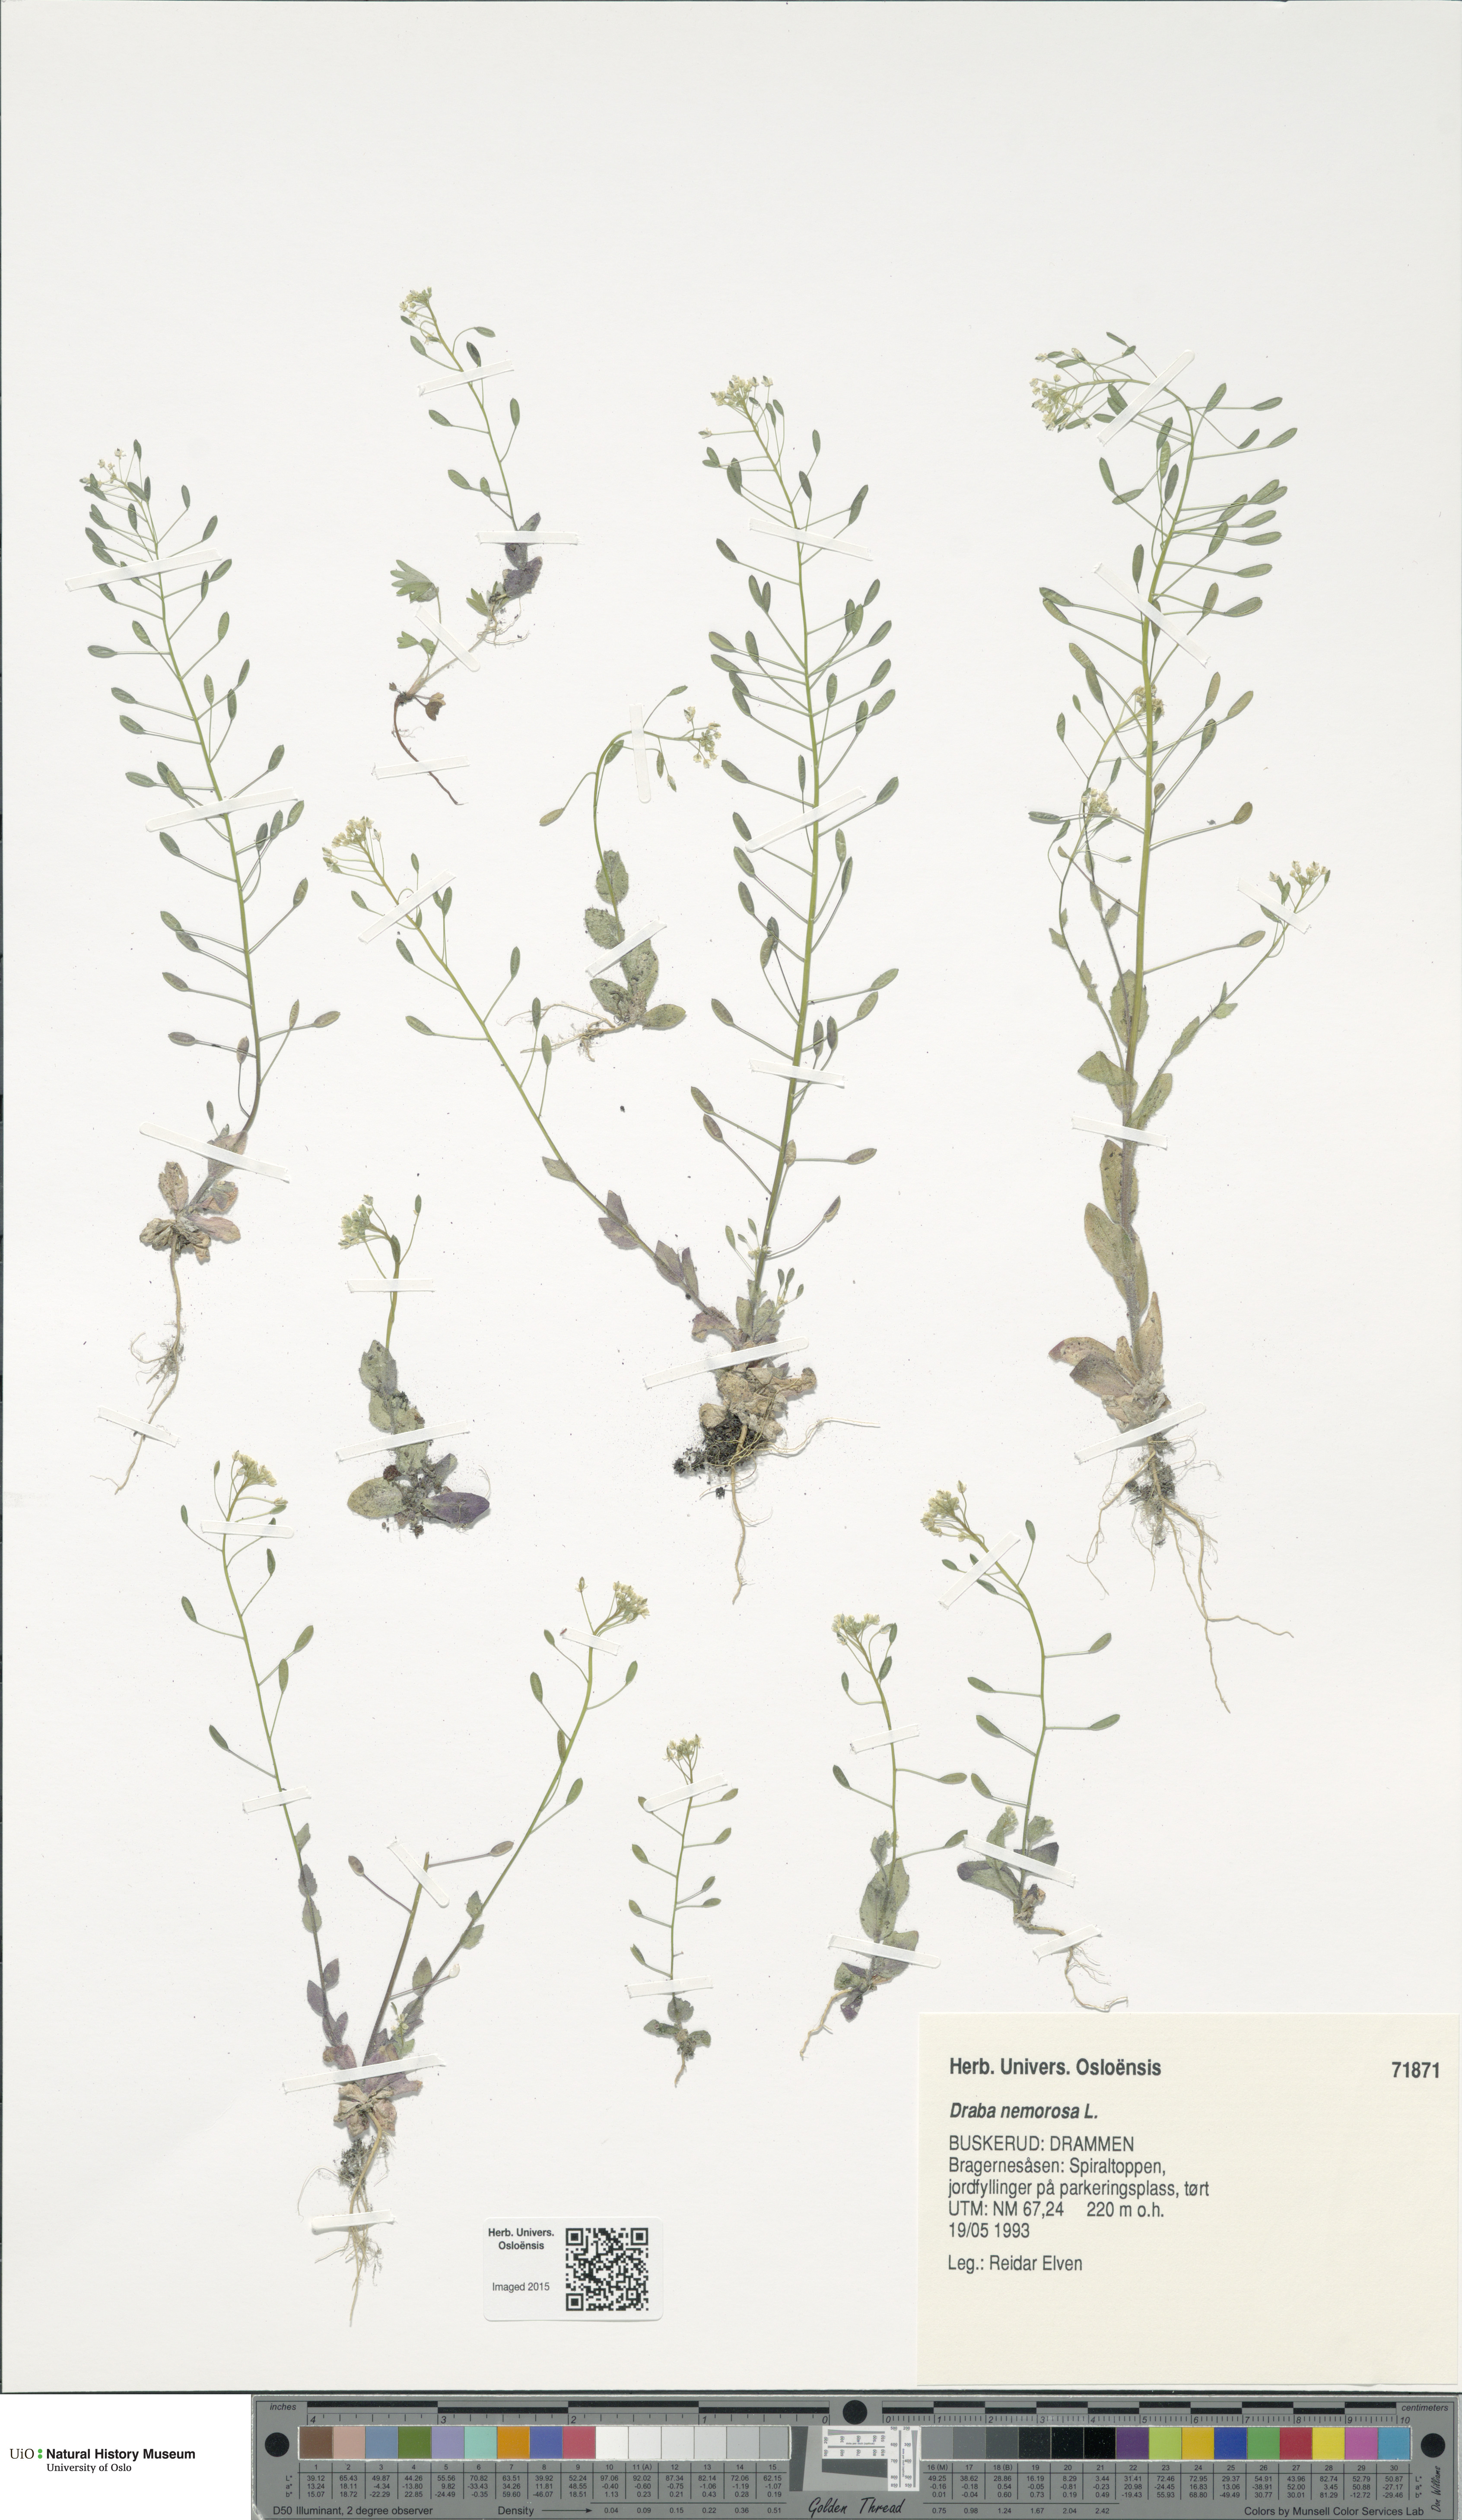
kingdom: Plantae
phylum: Tracheophyta
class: Magnoliopsida
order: Brassicales
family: Brassicaceae
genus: Draba
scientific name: Draba nemorosa
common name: Wood whitlow-grass
